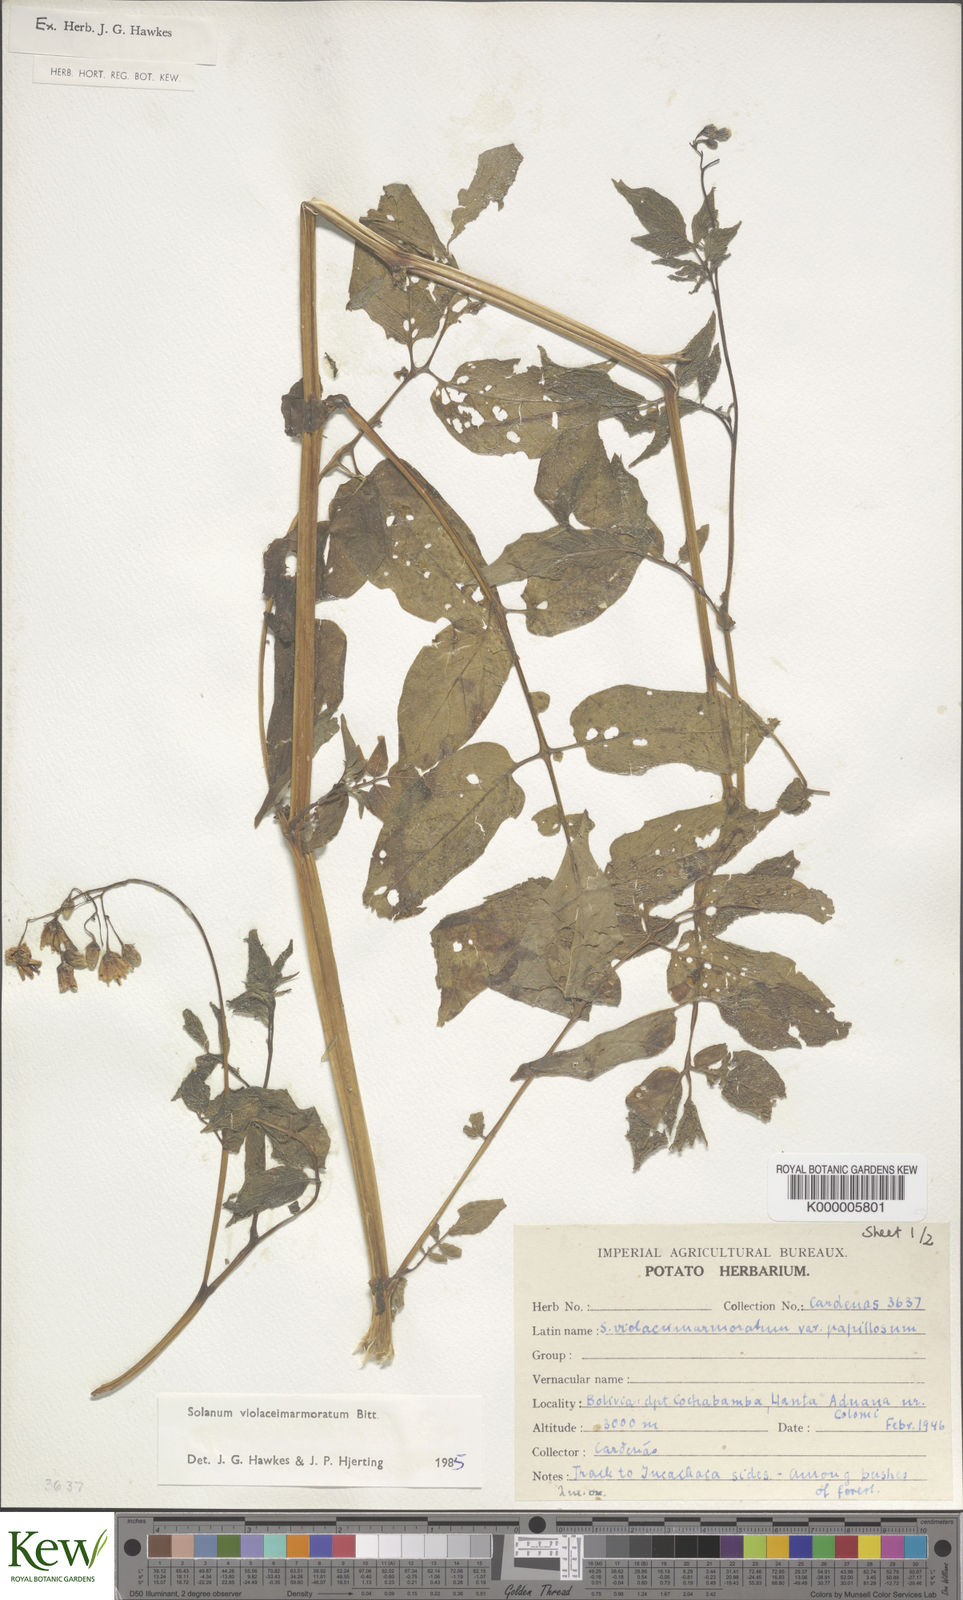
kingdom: Plantae
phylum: Tracheophyta
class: Magnoliopsida
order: Solanales
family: Solanaceae
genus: Solanum
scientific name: Solanum violaceimarmoratum
